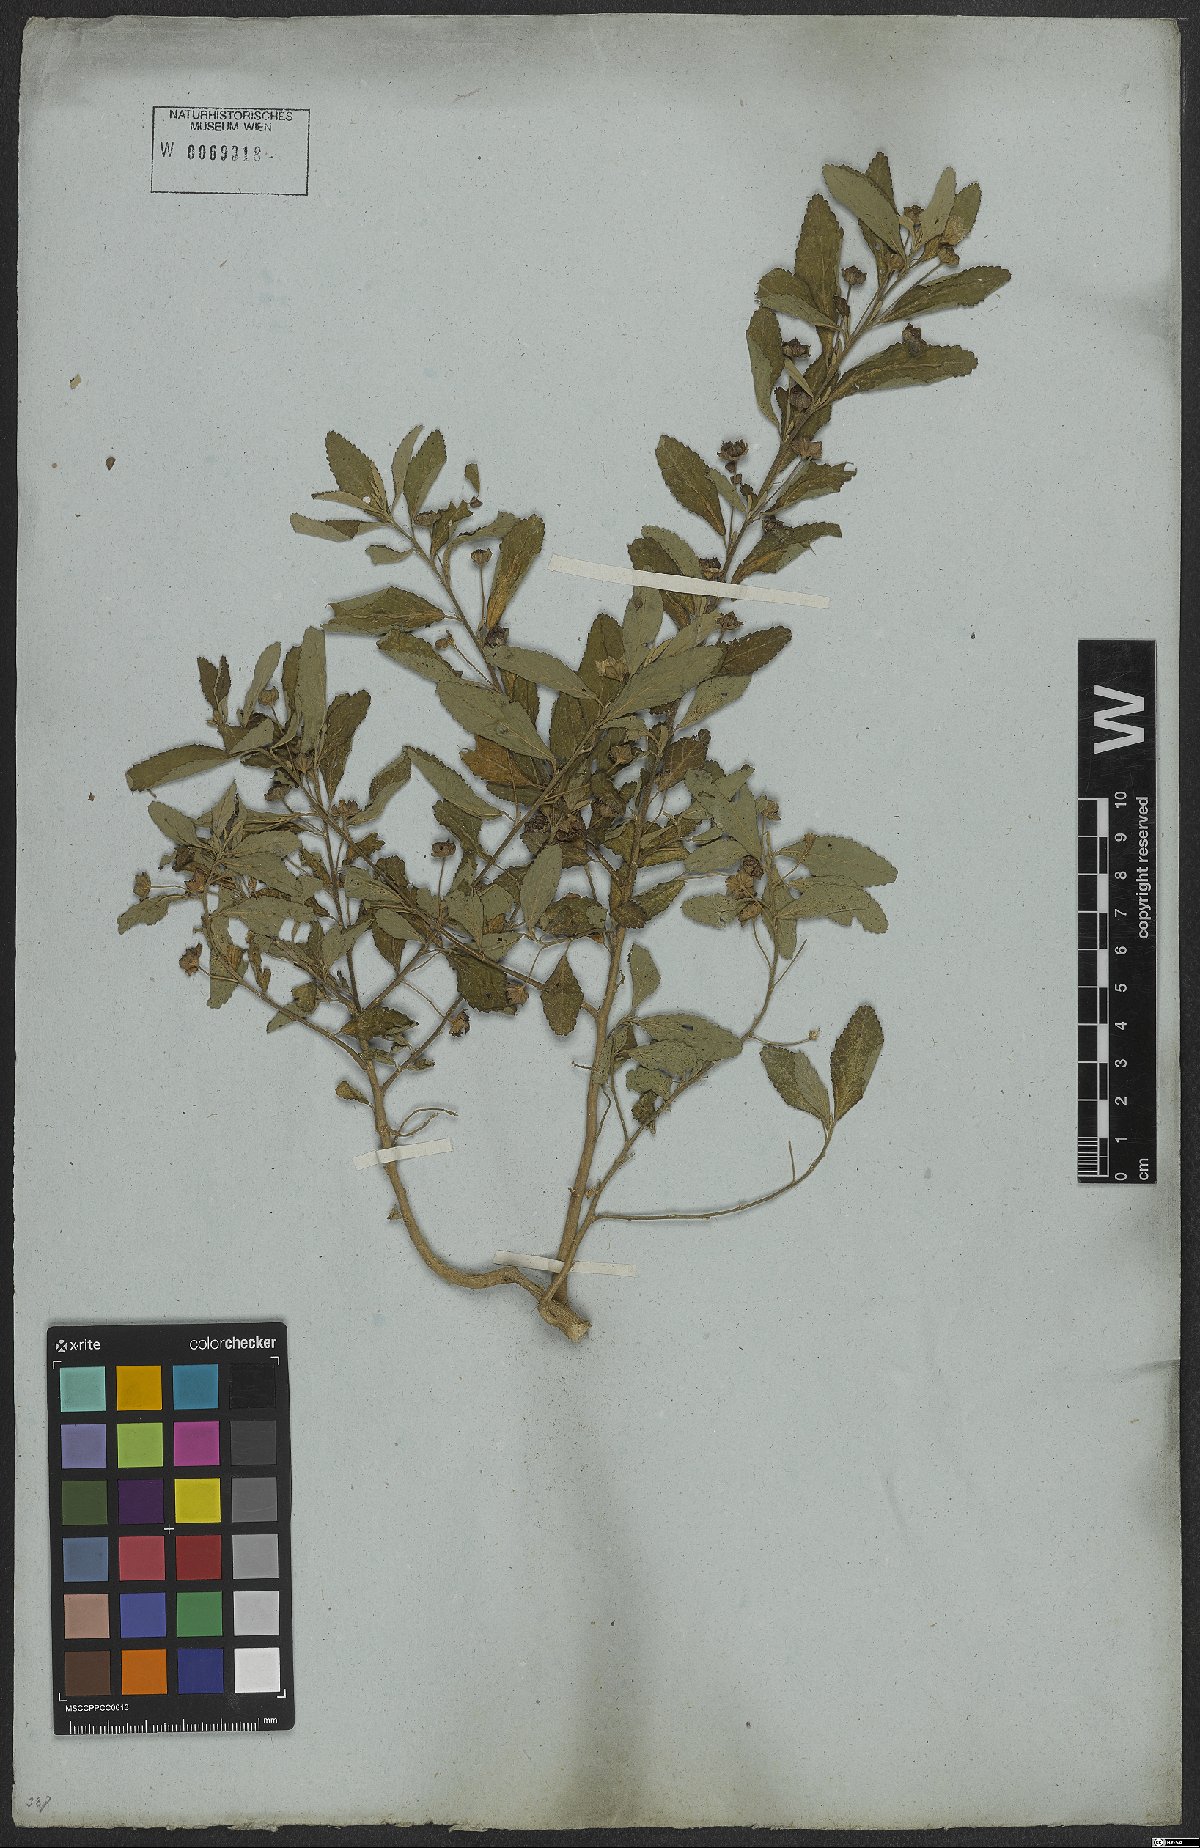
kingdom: Plantae
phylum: Tracheophyta
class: Magnoliopsida
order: Malvales
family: Malvaceae
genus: Sida
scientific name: Sida rhombifolia
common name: Queensland-hemp
